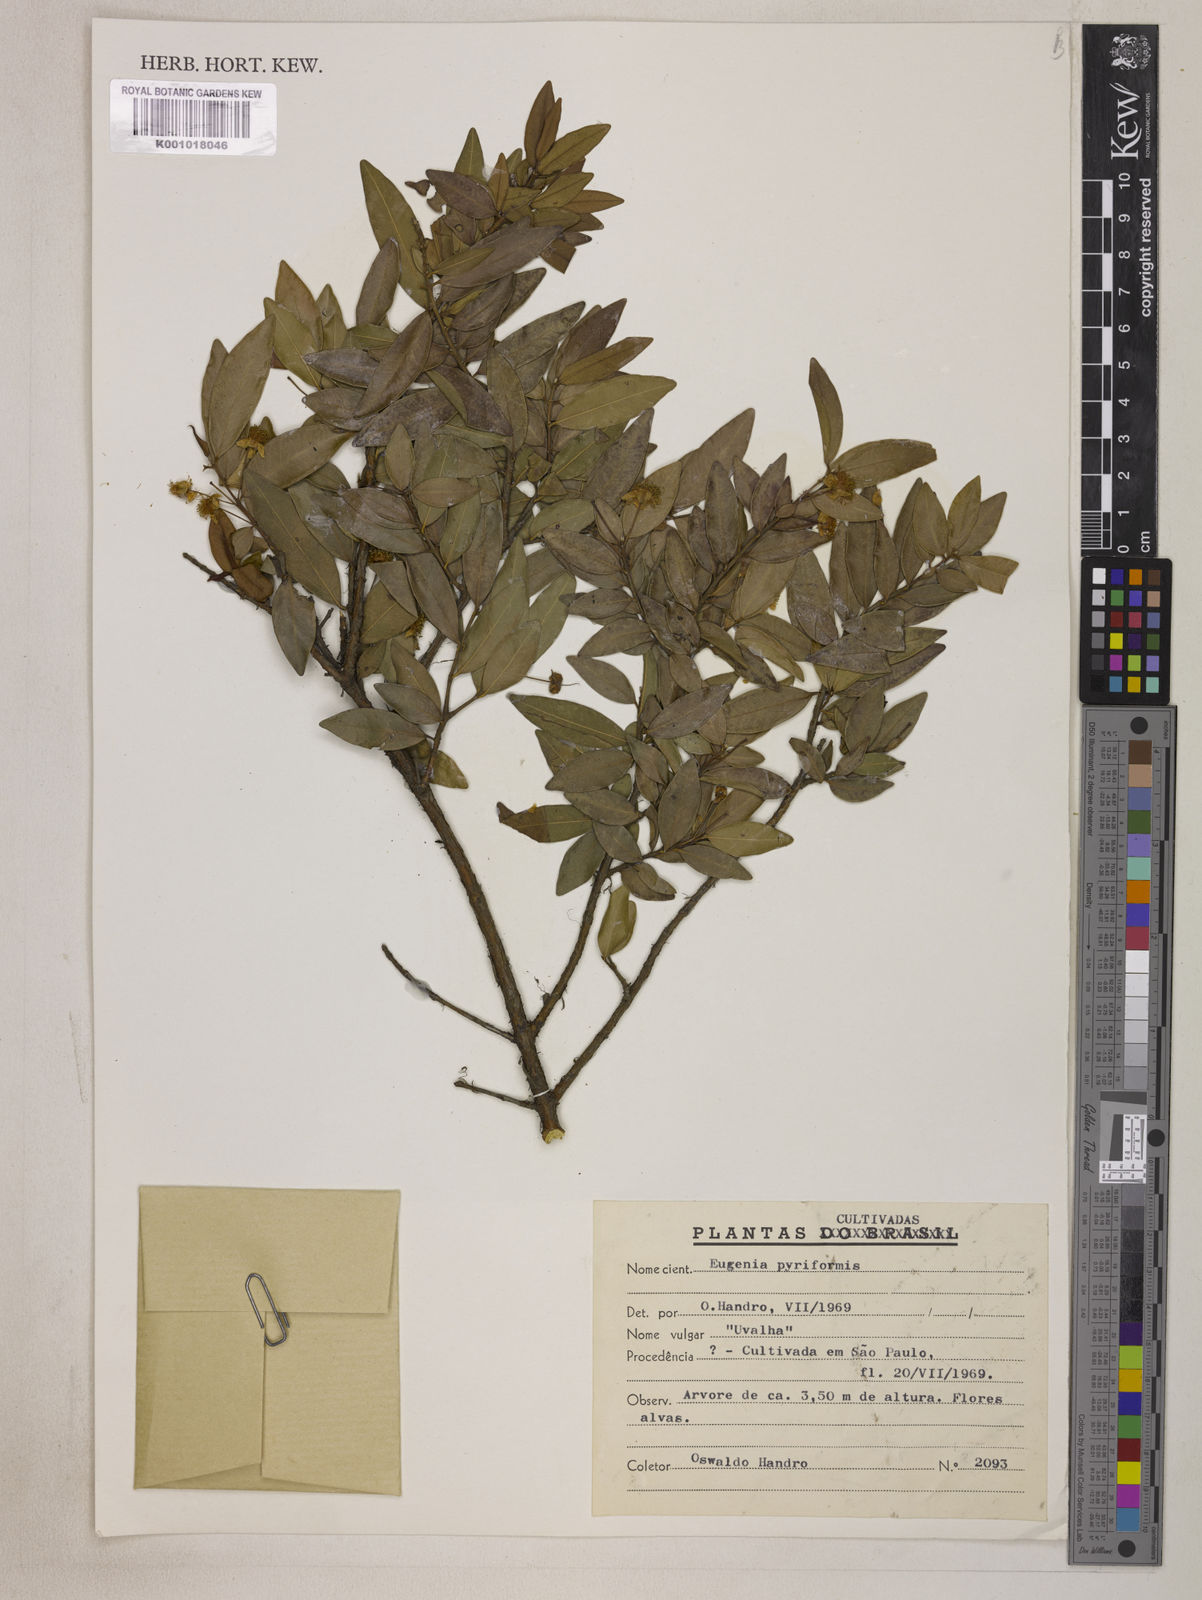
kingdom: Plantae
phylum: Tracheophyta
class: Magnoliopsida
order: Myrtales
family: Myrtaceae
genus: Eugenia
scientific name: Eugenia pyriformis
